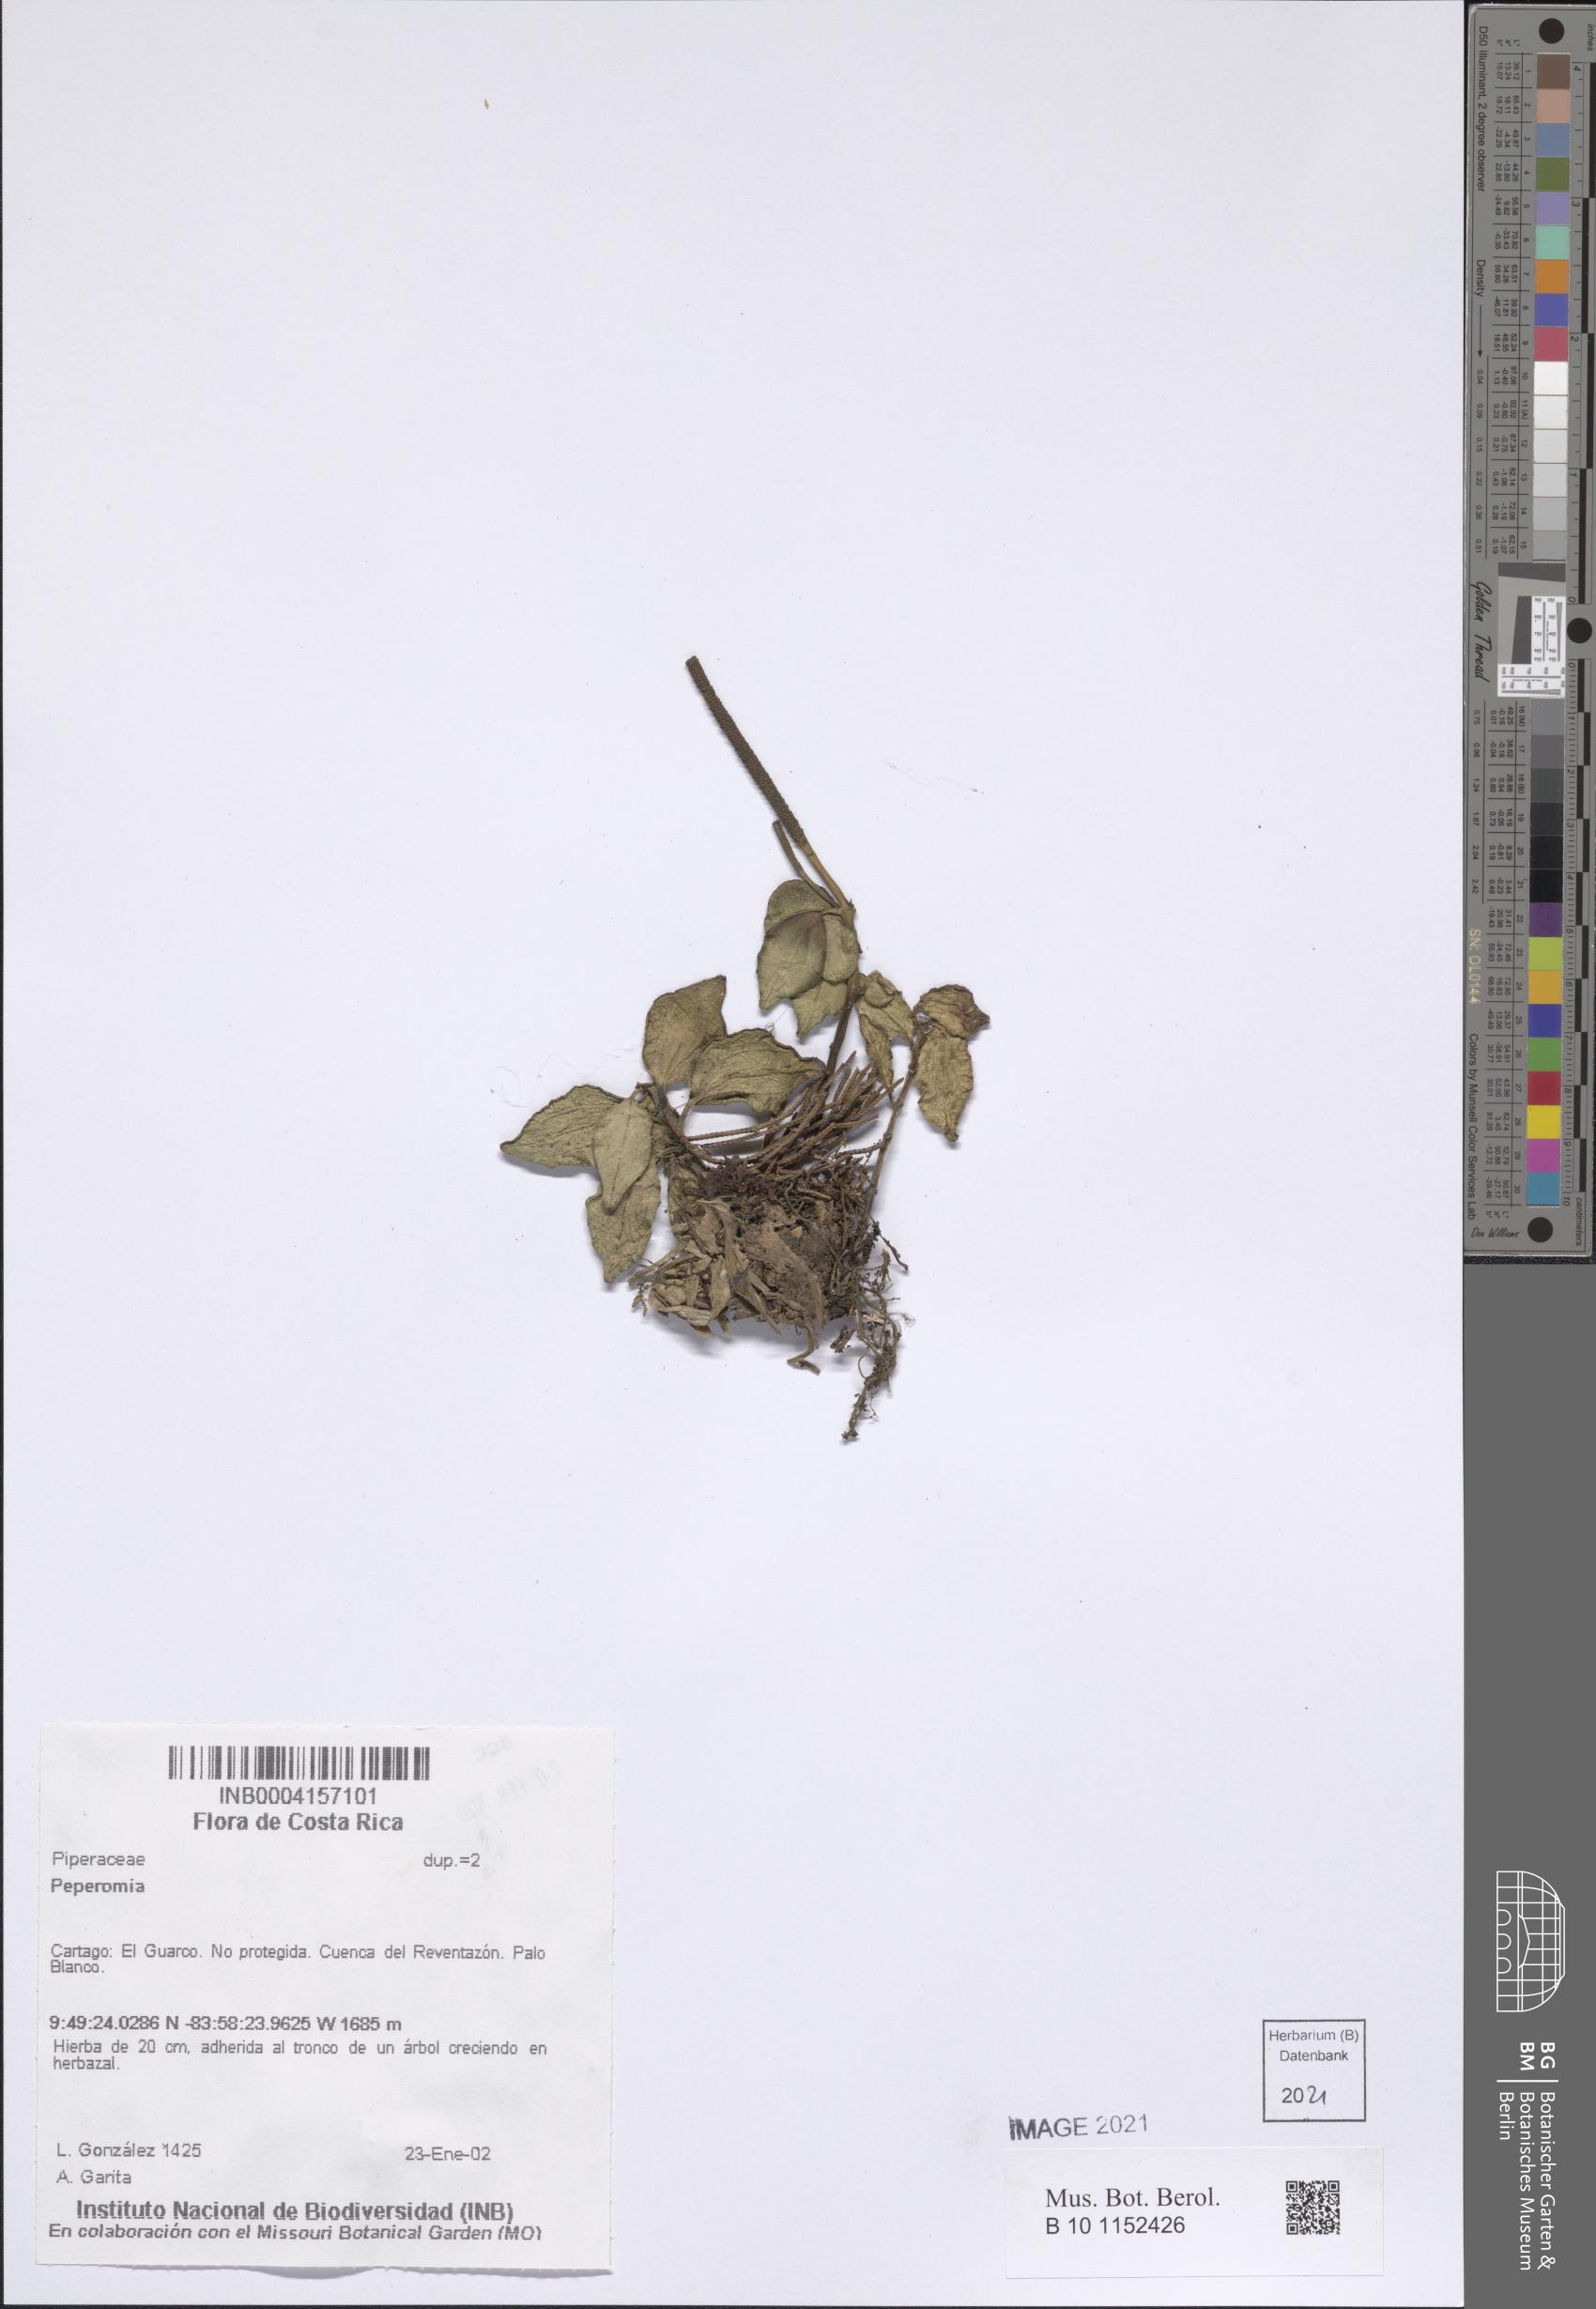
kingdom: Plantae
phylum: Tracheophyta
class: Magnoliopsida
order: Piperales
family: Piperaceae
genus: Peperomia
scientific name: Peperomia
